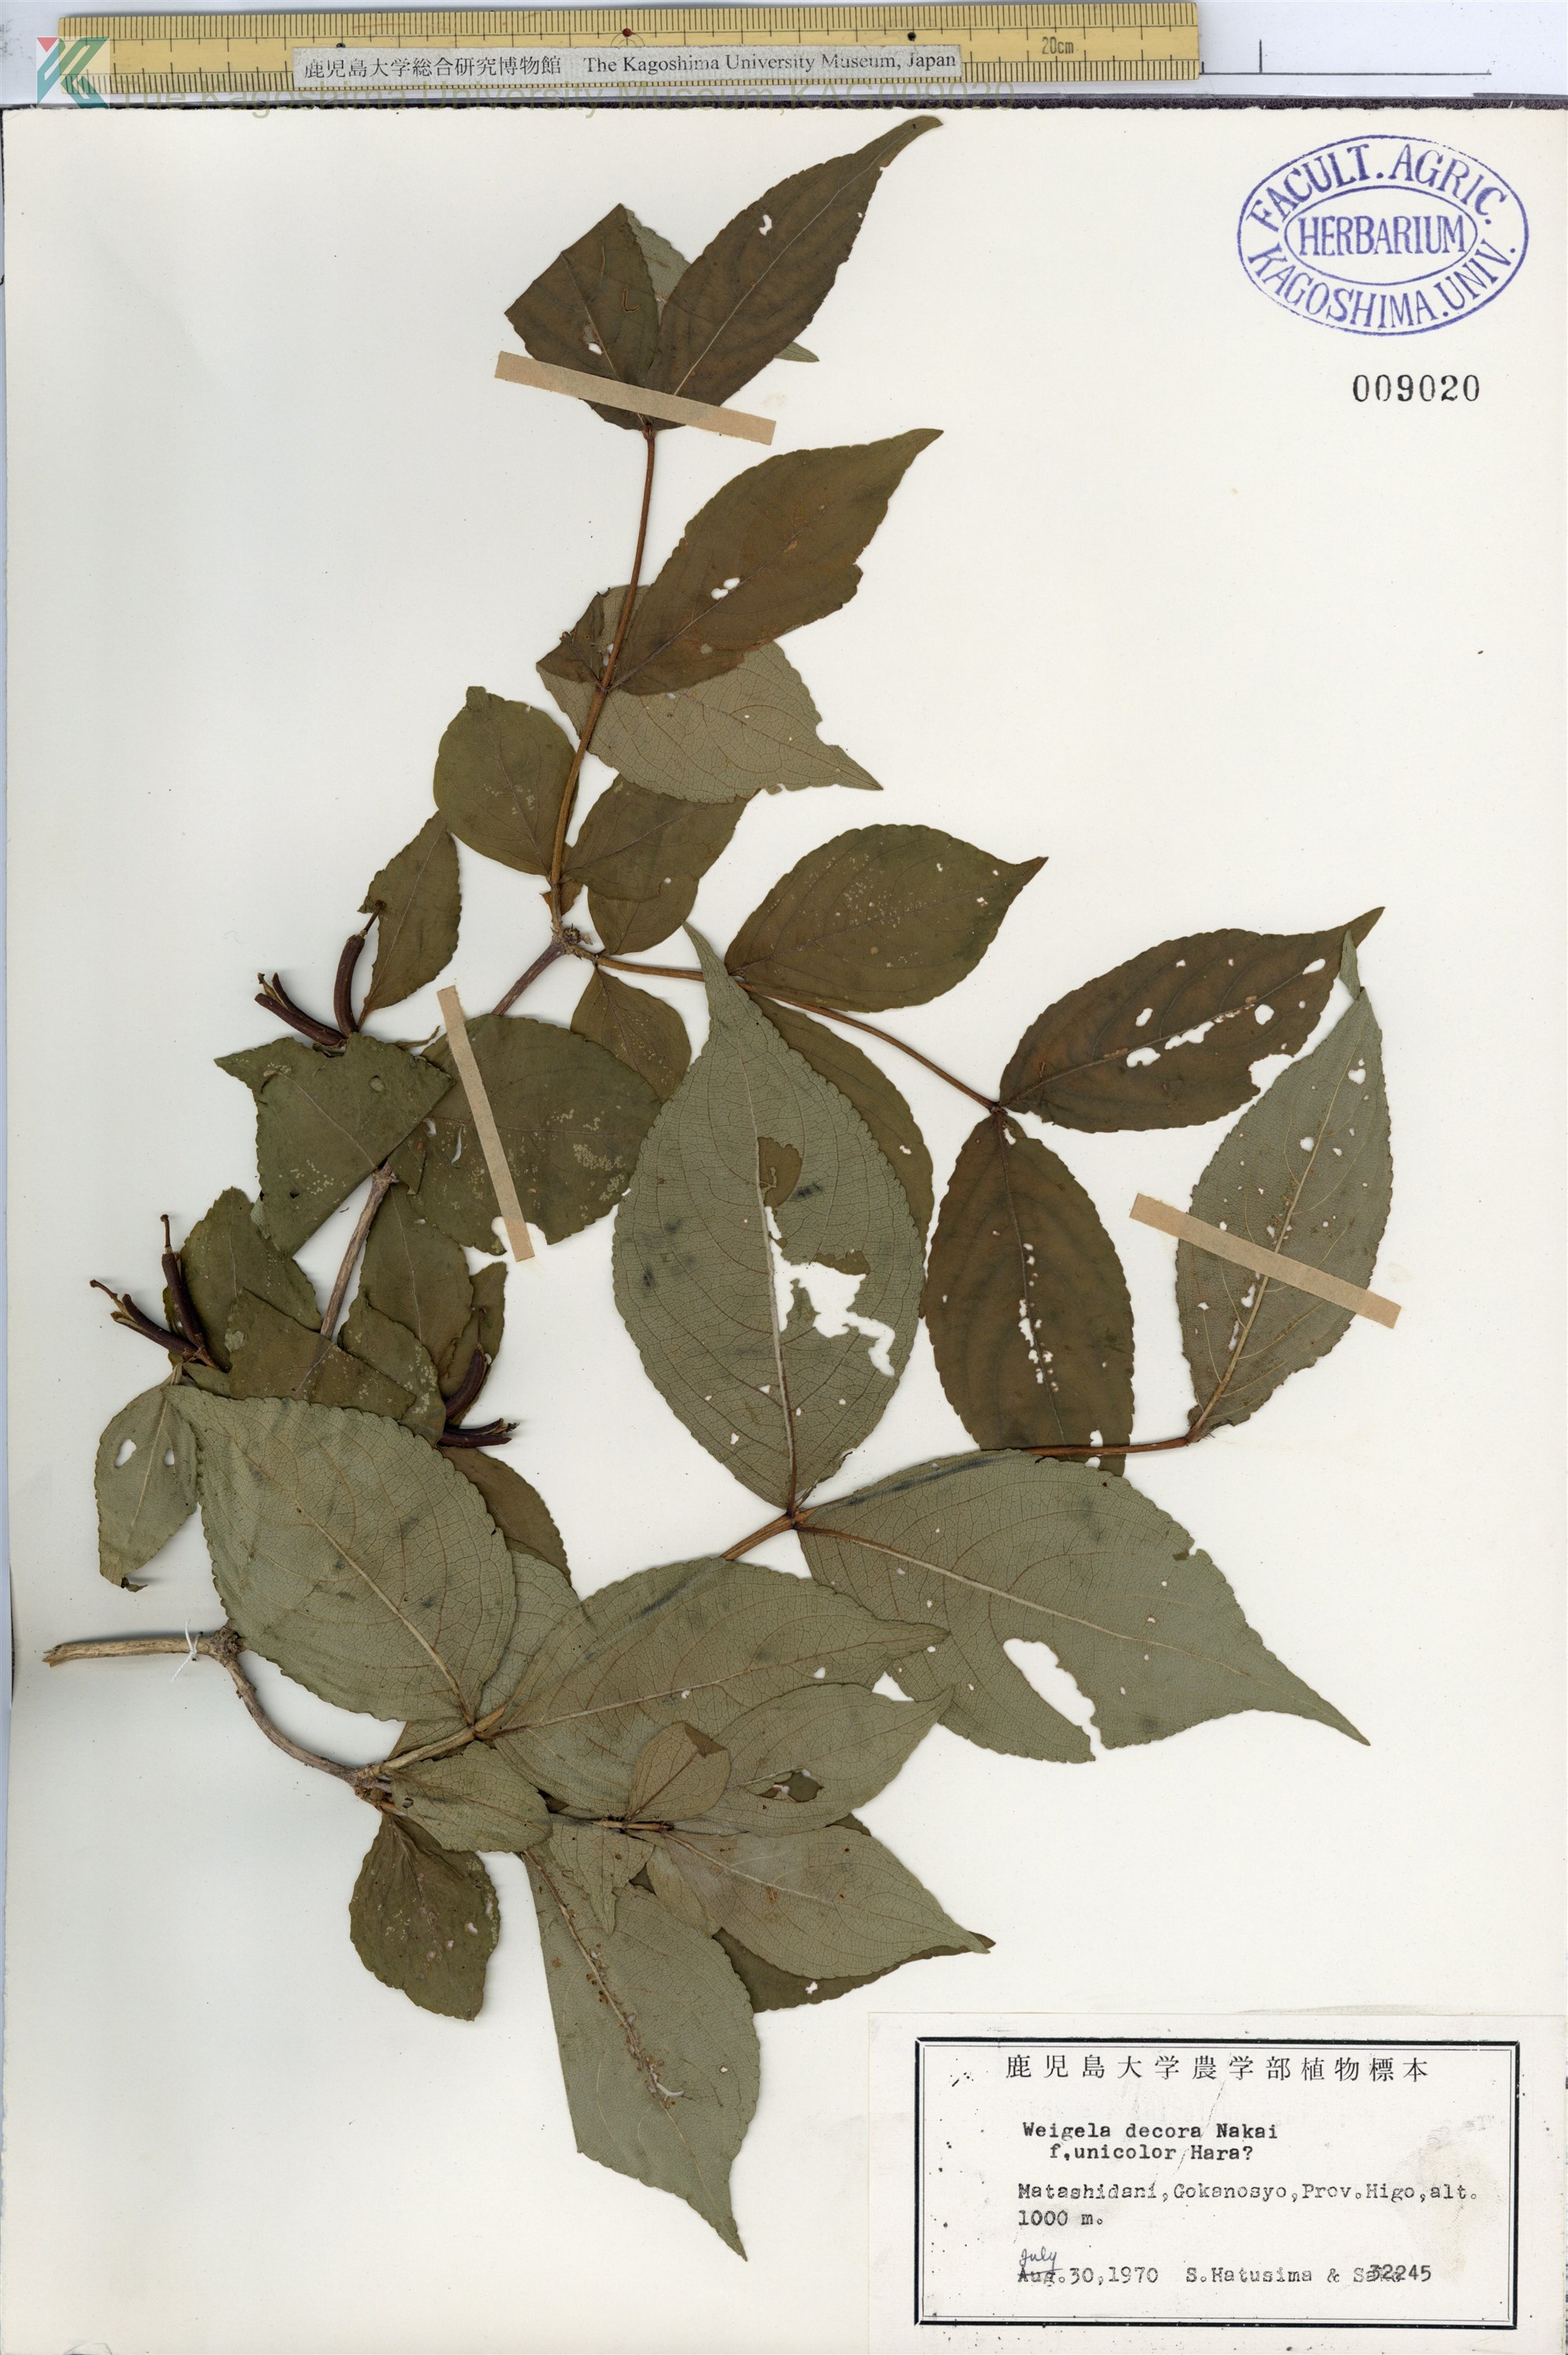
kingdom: Plantae
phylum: Tracheophyta
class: Magnoliopsida
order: Dipsacales
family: Caprifoliaceae
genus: Weigela
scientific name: Weigela decora
